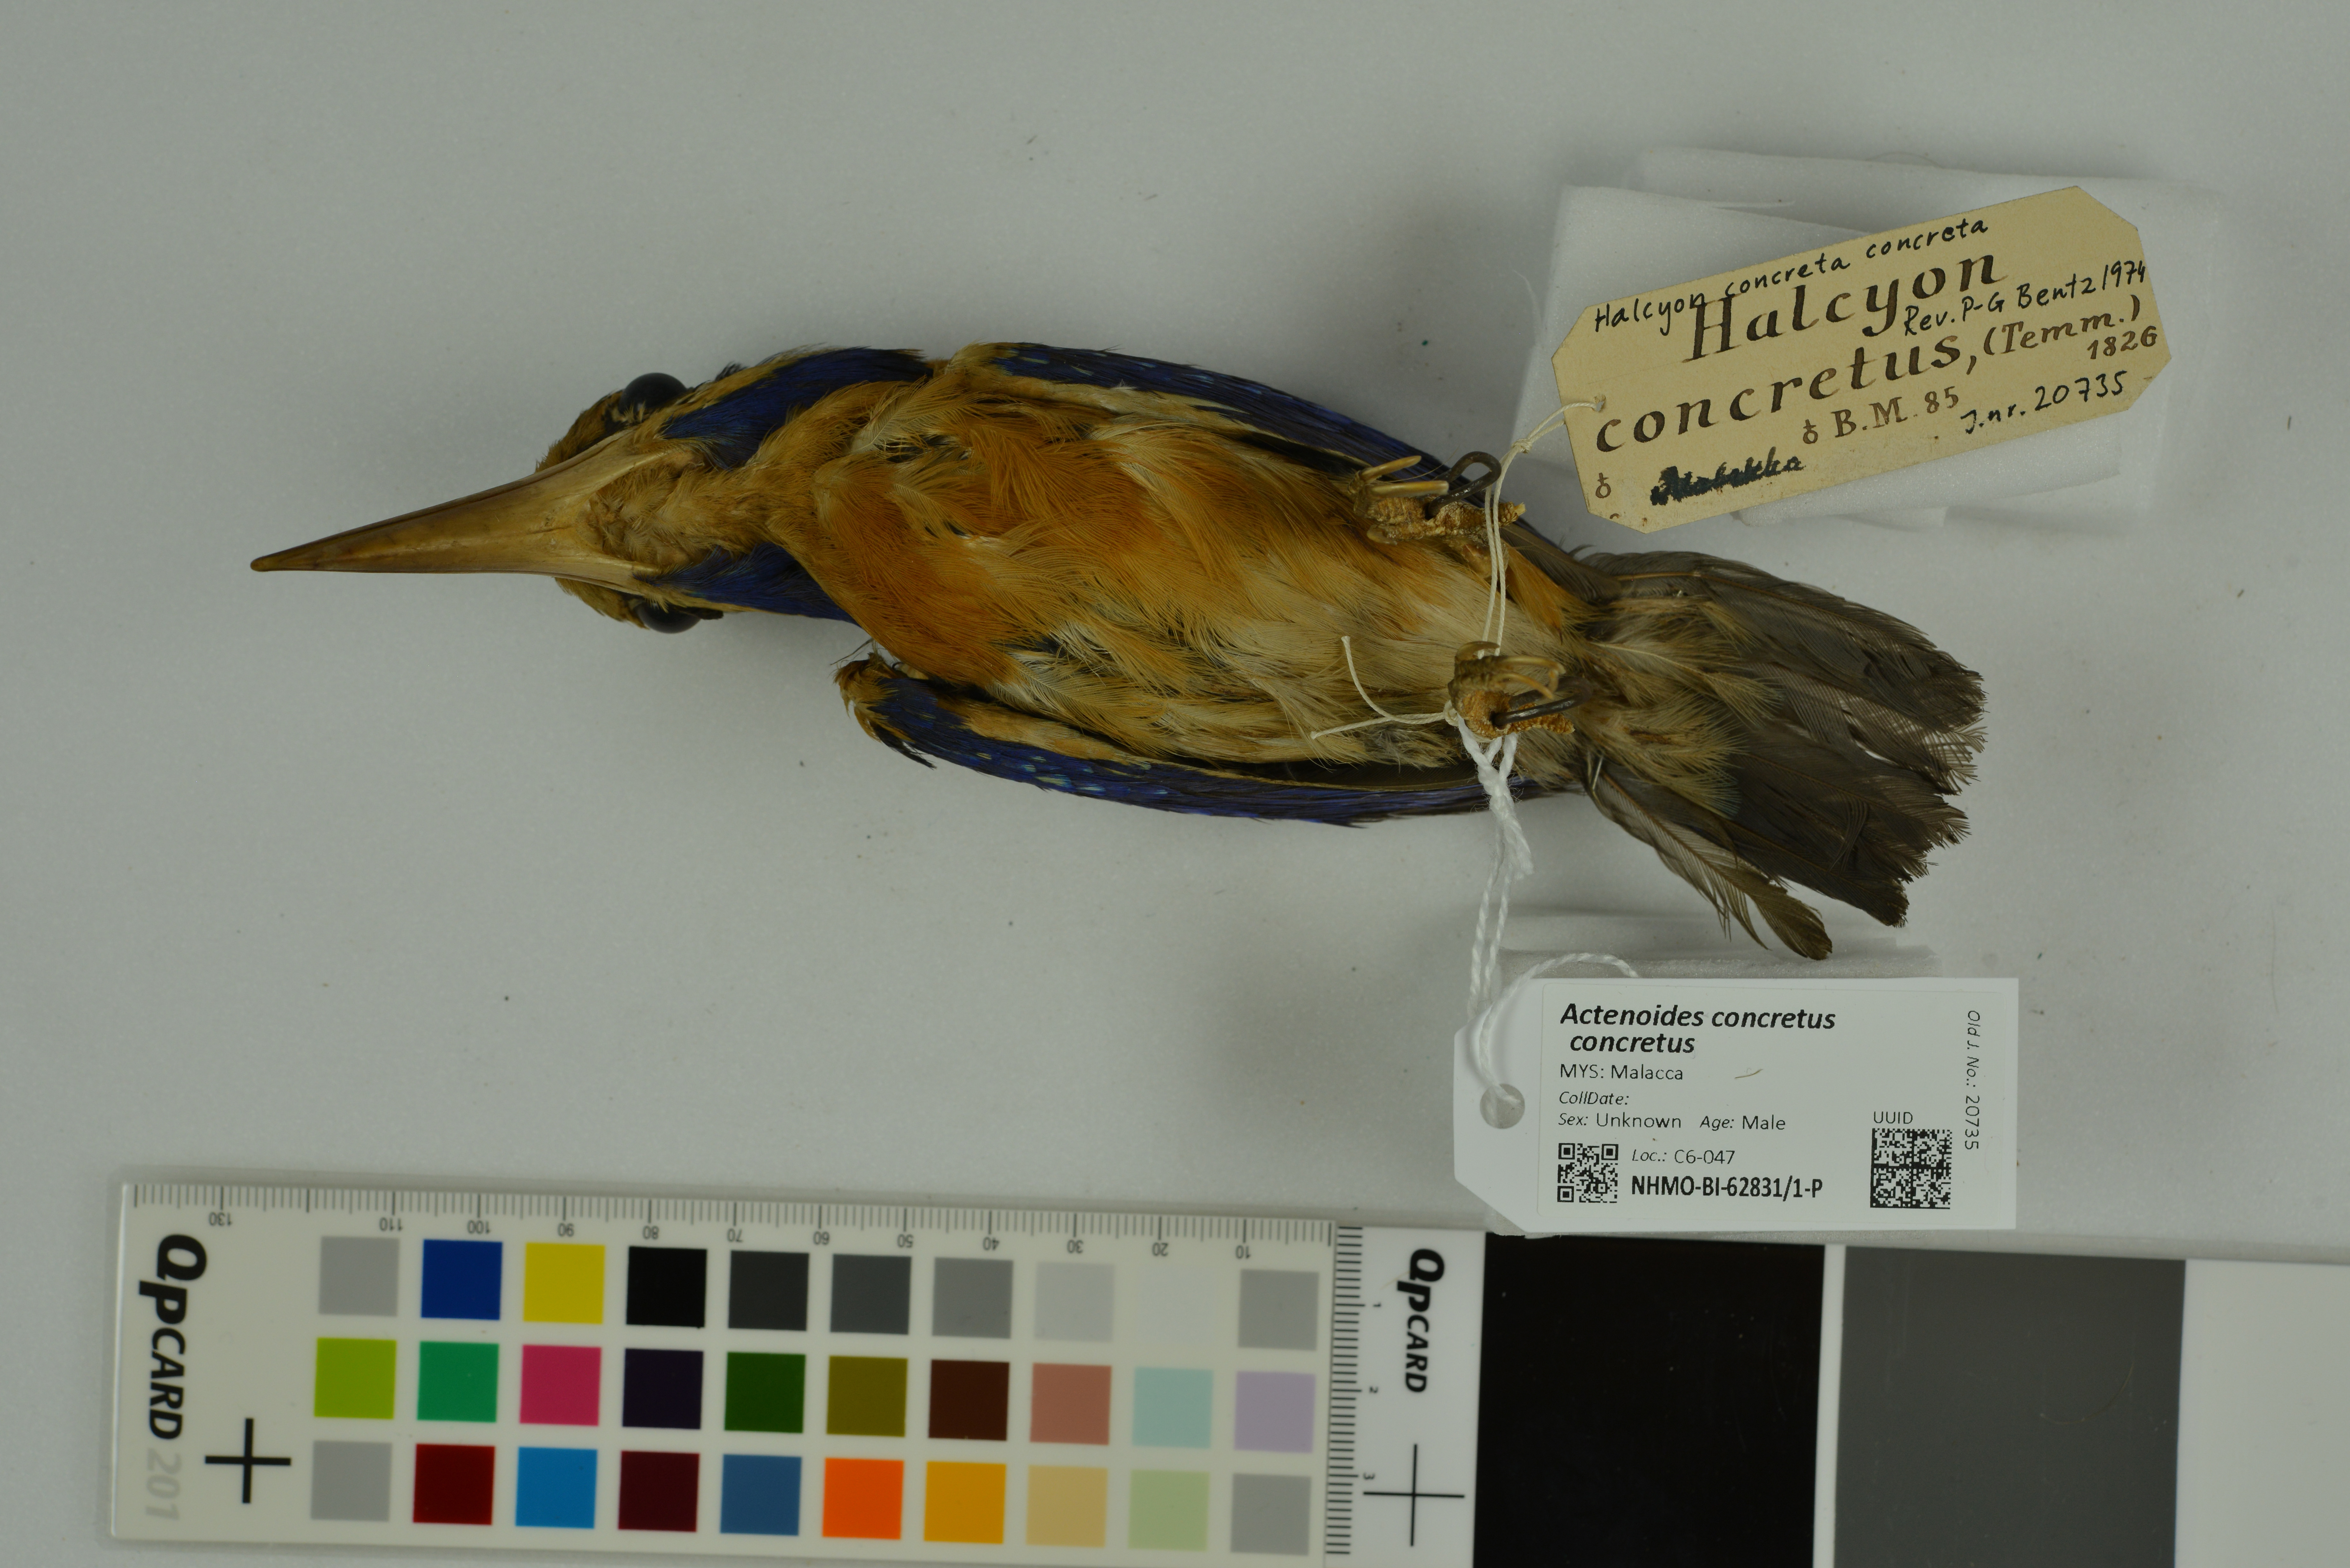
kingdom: Animalia
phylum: Chordata
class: Aves
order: Coraciiformes
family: Alcedinidae
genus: Actenoides
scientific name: Actenoides concretus
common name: Rufous-collared kingfisher
